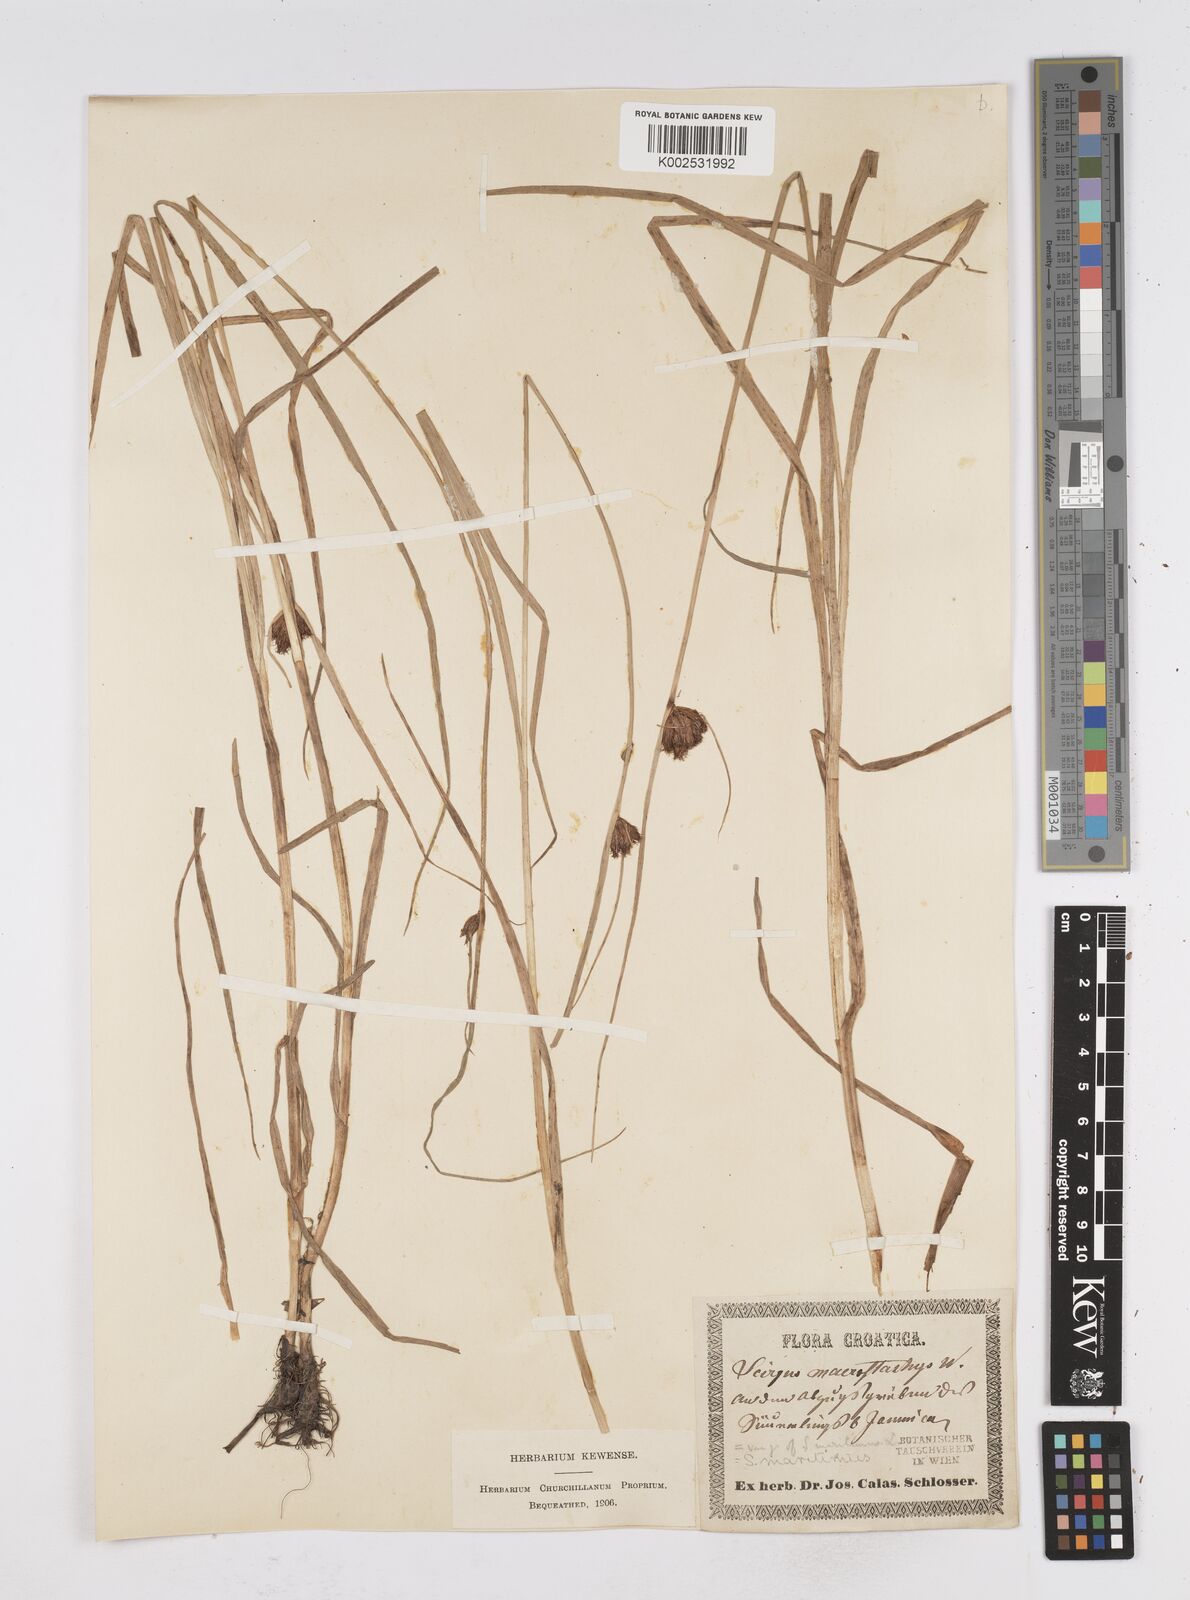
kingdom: Plantae
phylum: Tracheophyta
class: Liliopsida
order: Poales
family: Cyperaceae
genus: Bolboschoenus
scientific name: Bolboschoenus maritimus
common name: Sea club-rush
